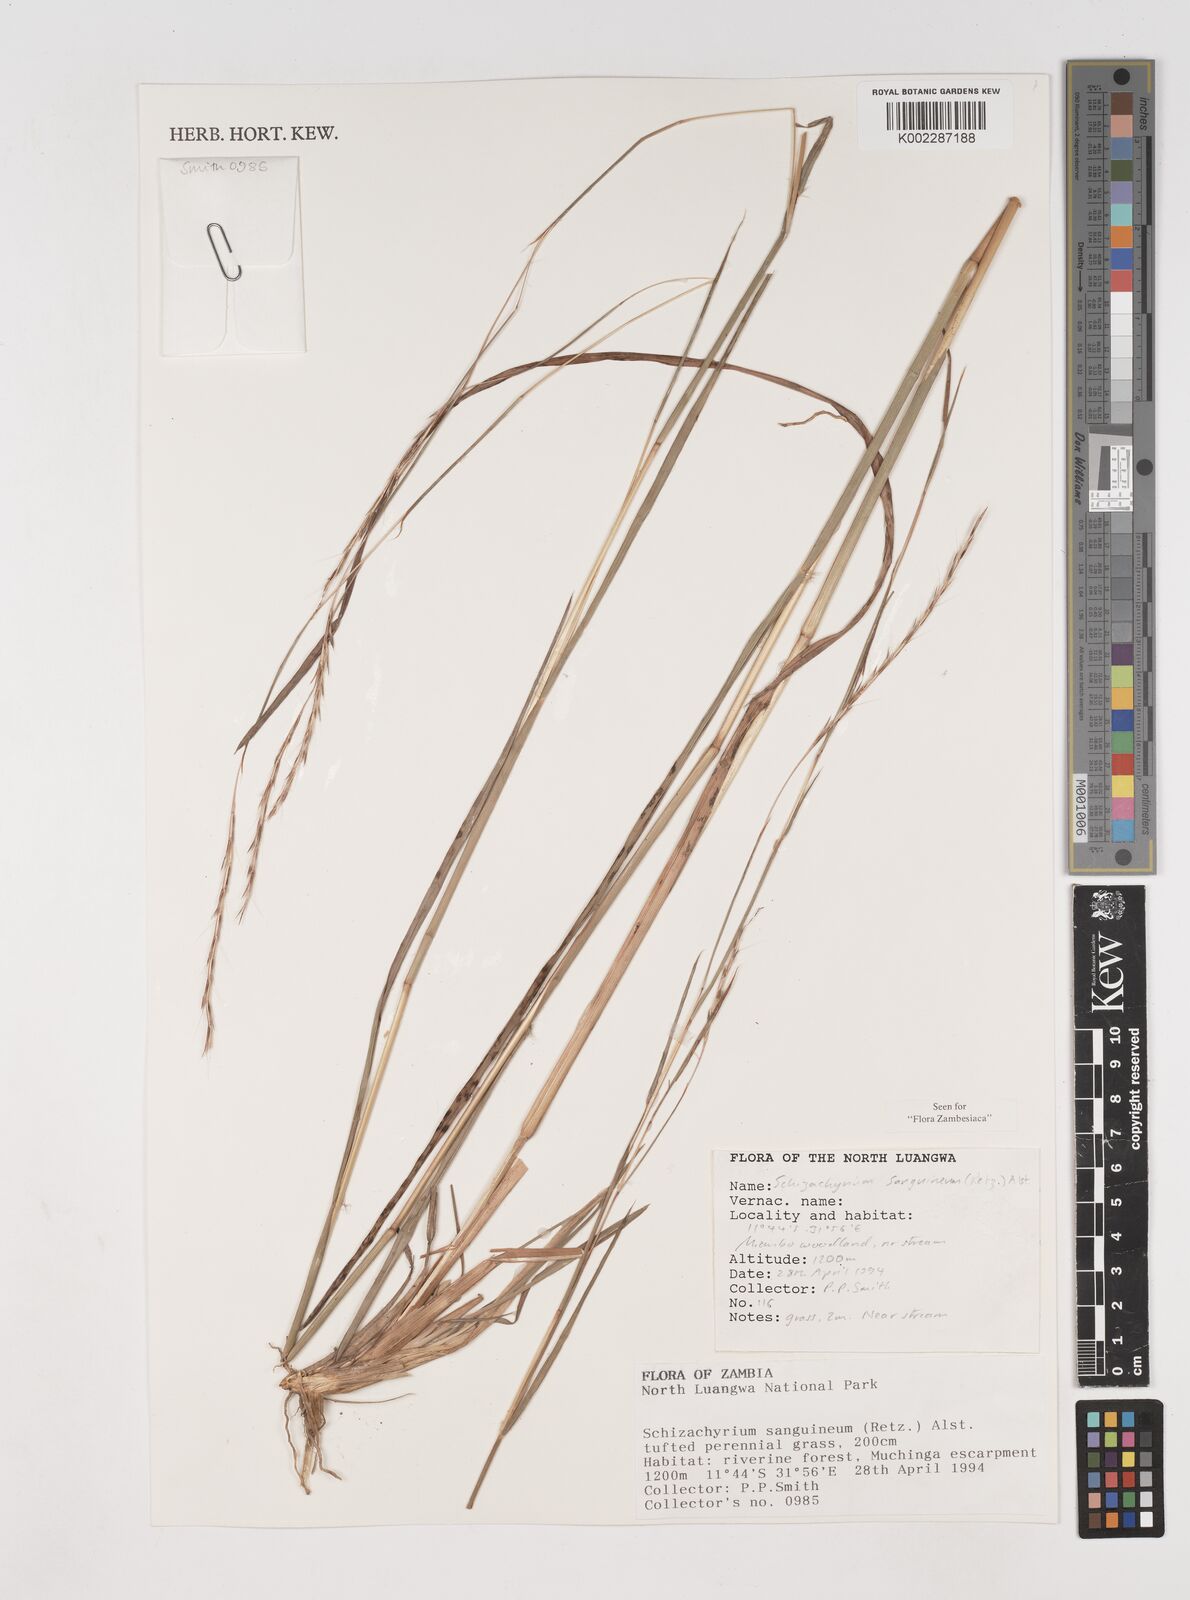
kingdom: Plantae
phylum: Tracheophyta
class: Liliopsida
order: Poales
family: Poaceae
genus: Schizachyrium
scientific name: Schizachyrium sanguineum
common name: Crimson bluestem
